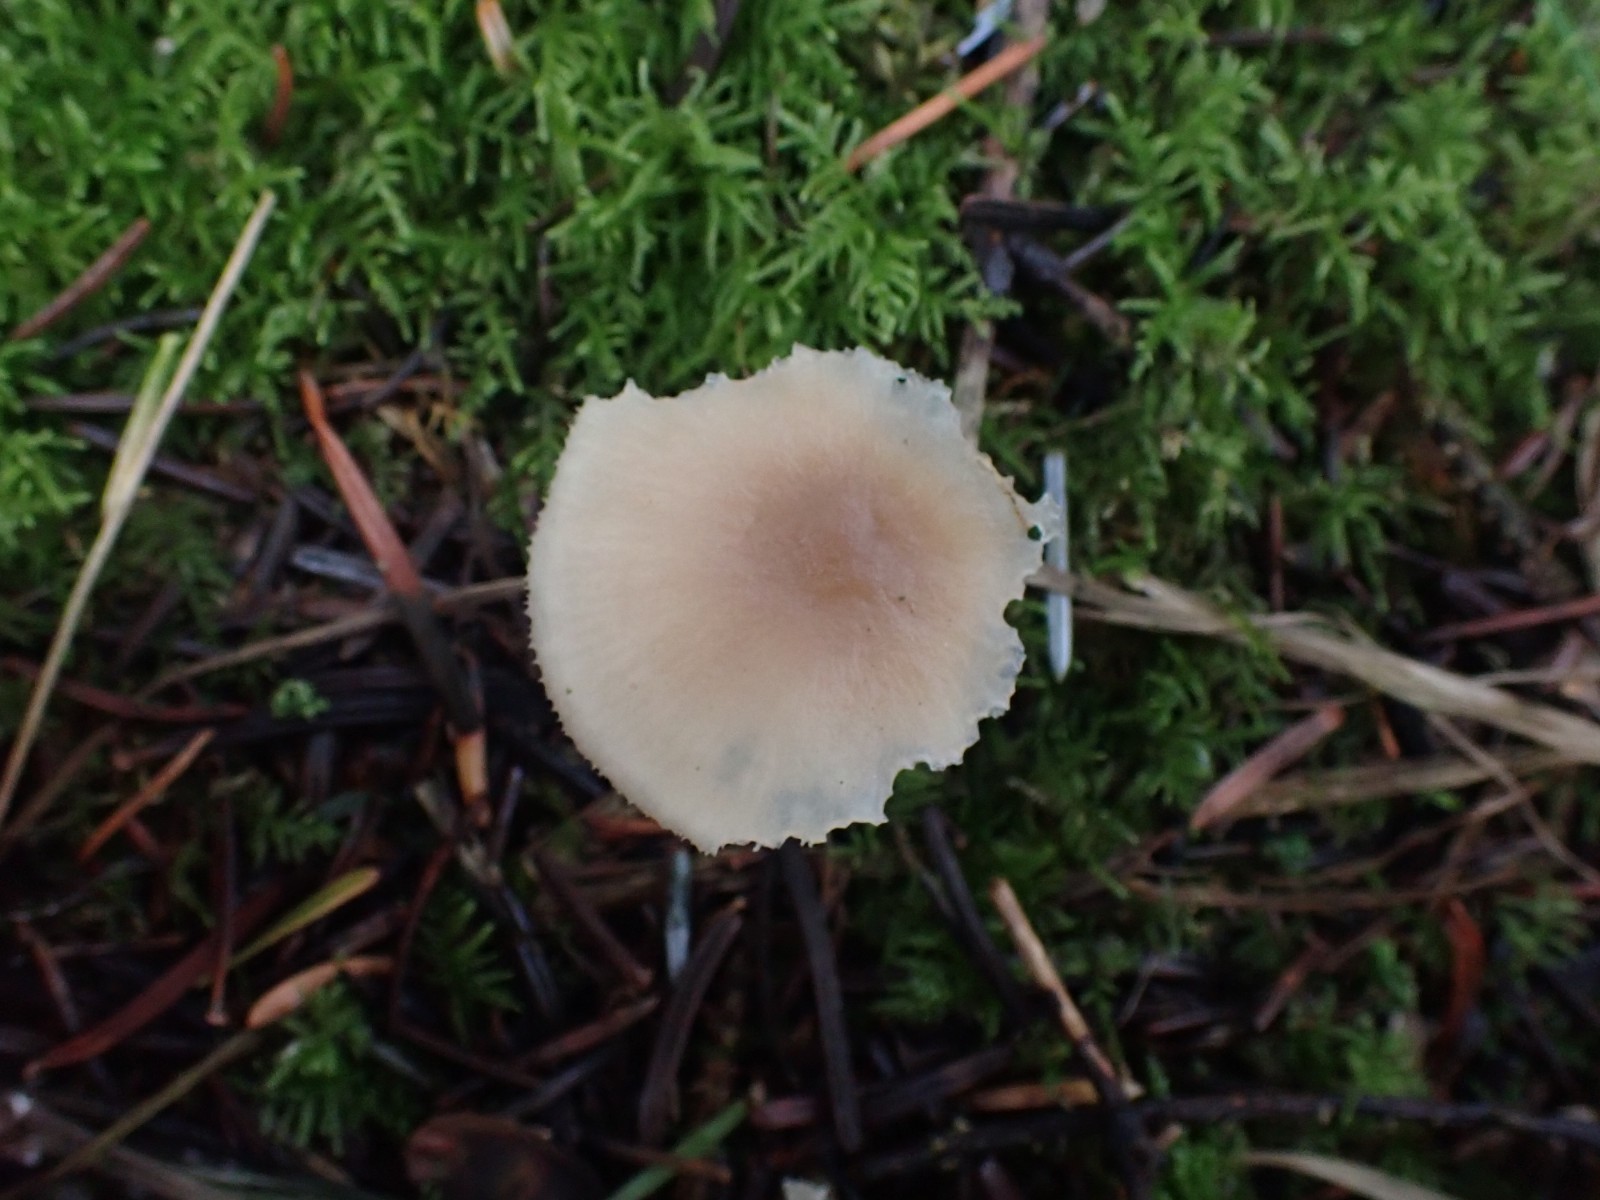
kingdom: Fungi
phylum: Basidiomycota
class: Agaricomycetes
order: Agaricales
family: Tricholomataceae
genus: Clitocybe
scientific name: Clitocybe fragrans
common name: vellugtende tragthat
